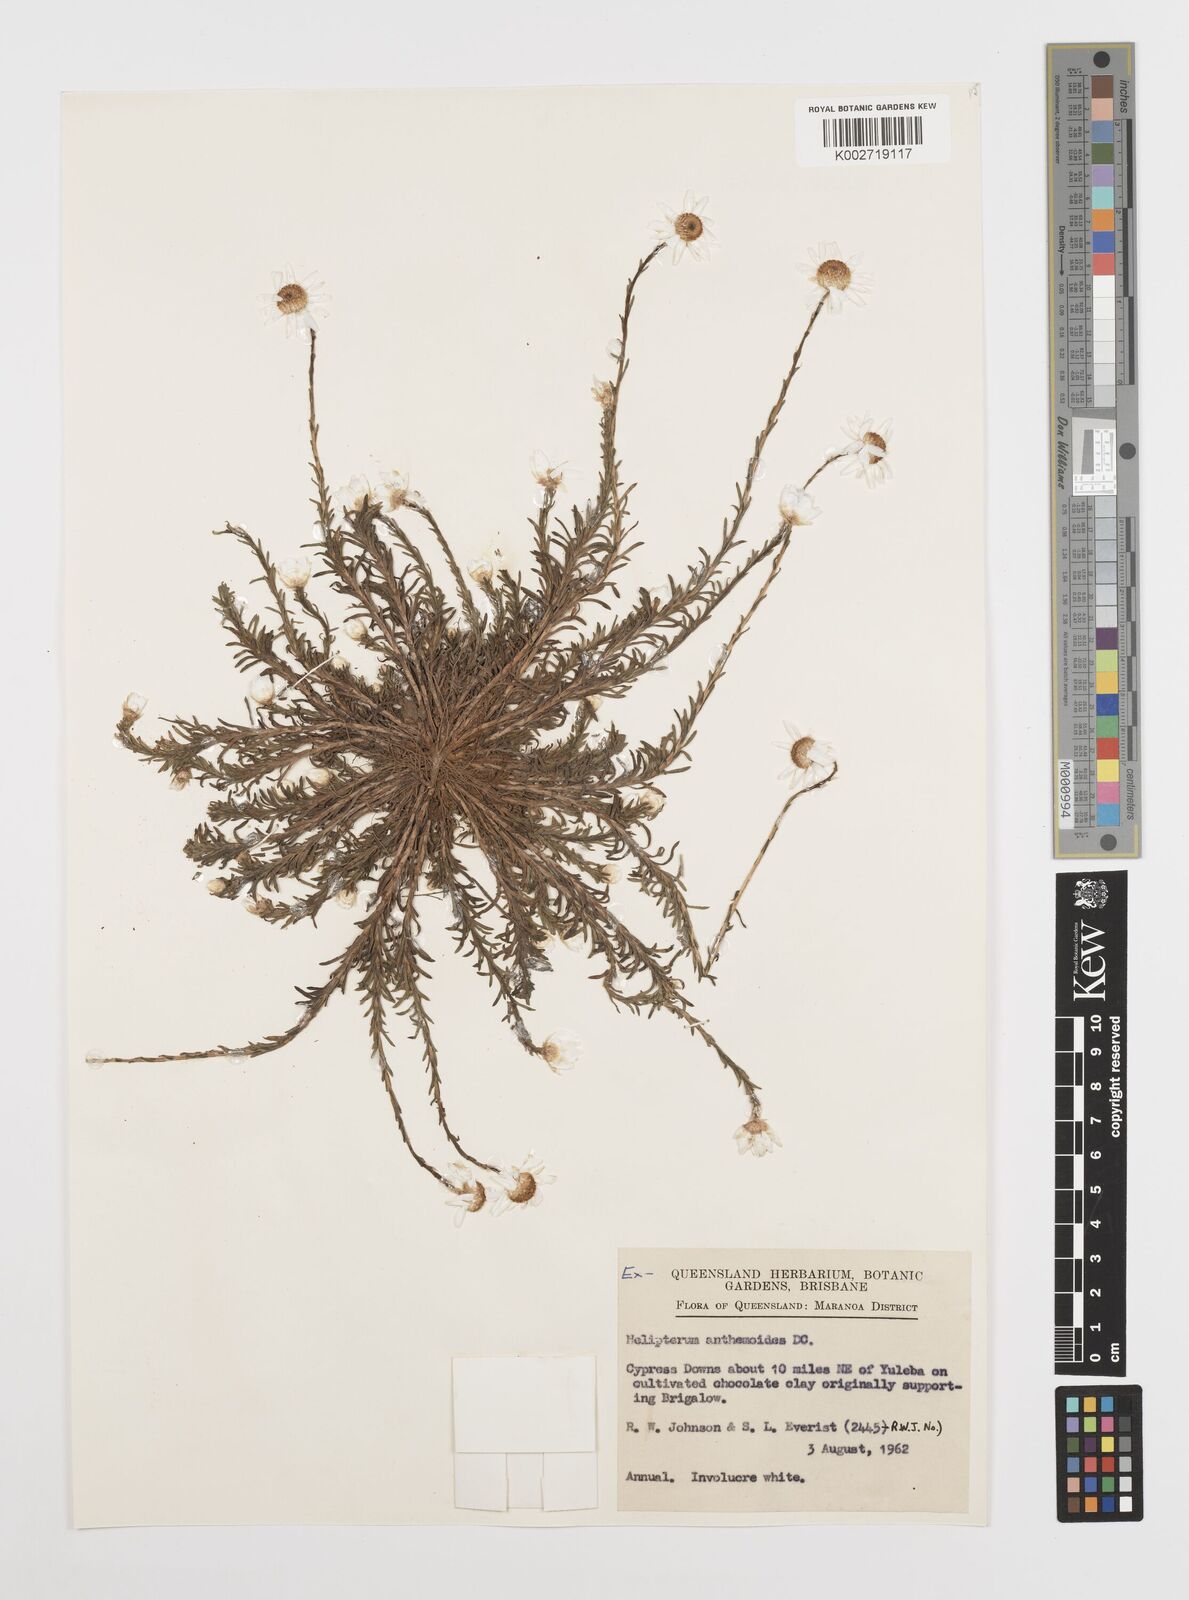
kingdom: Plantae
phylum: Tracheophyta
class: Magnoliopsida
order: Asterales
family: Asteraceae
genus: Rhodanthe
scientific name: Rhodanthe diffusa
